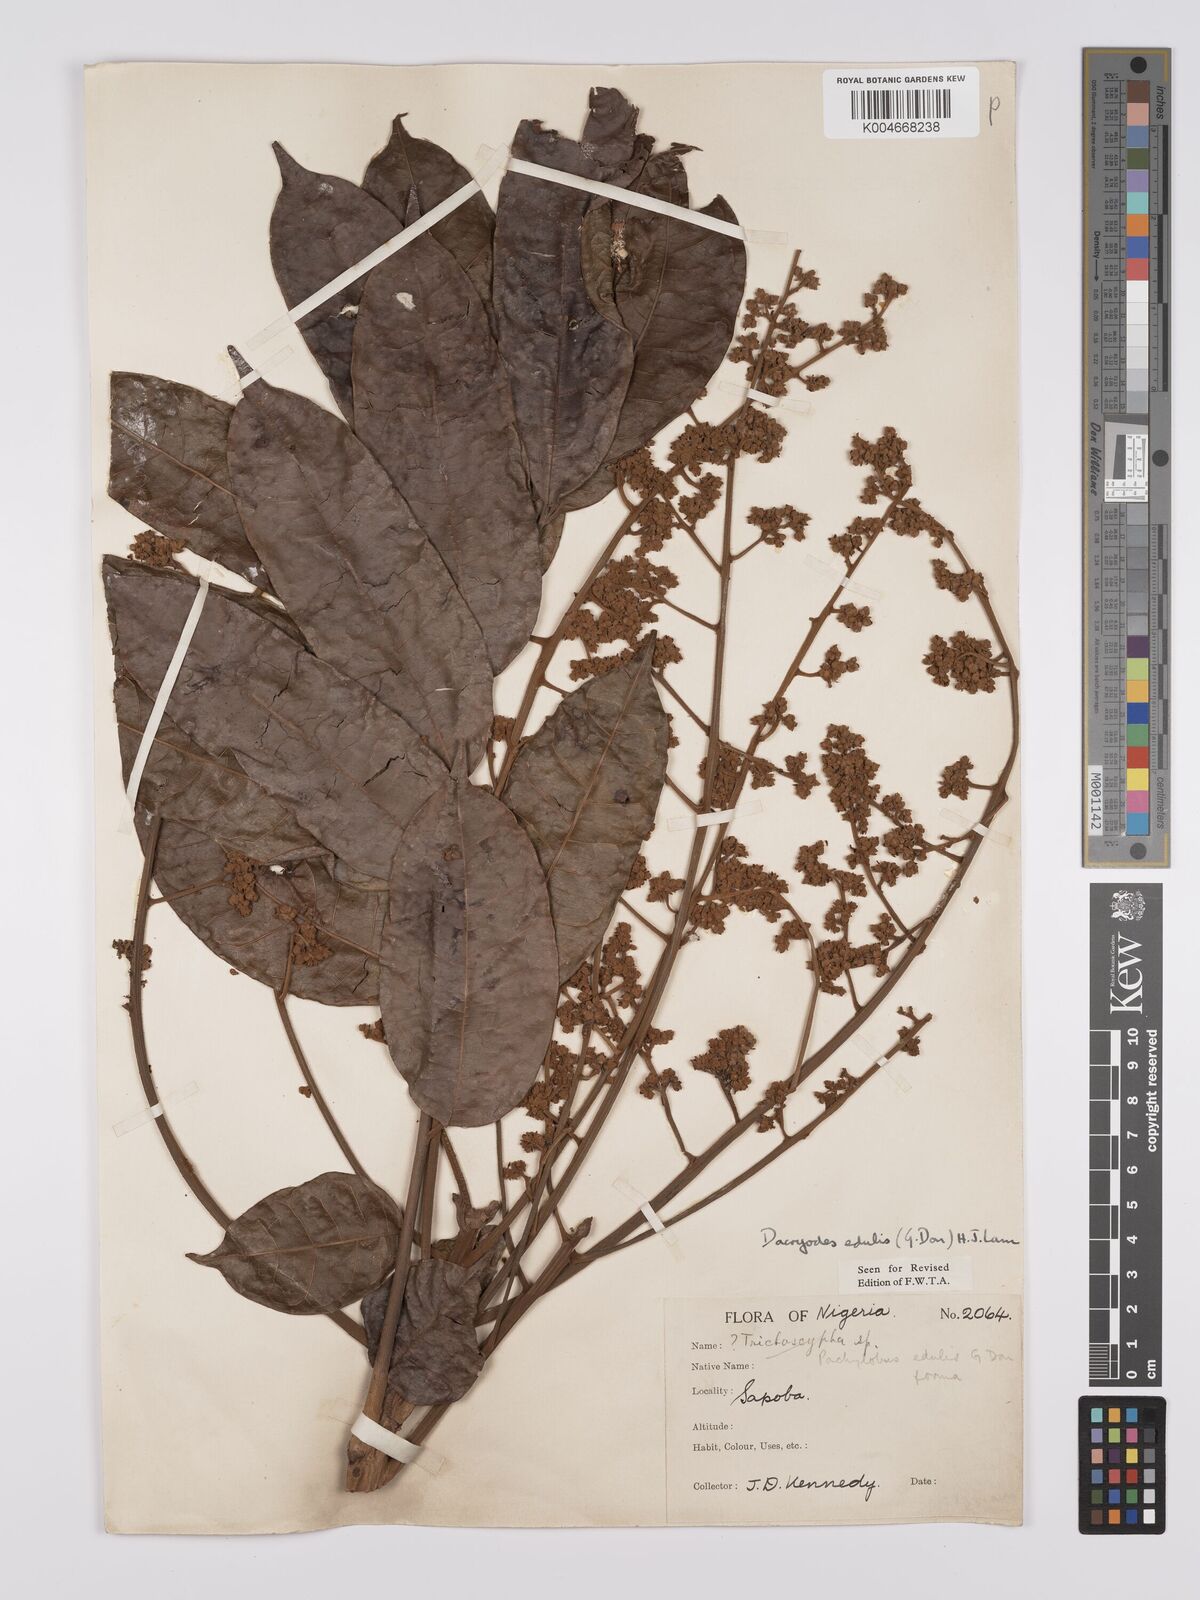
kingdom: Plantae
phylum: Tracheophyta
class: Magnoliopsida
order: Sapindales
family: Burseraceae
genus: Pachylobus
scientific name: Pachylobus edulis
